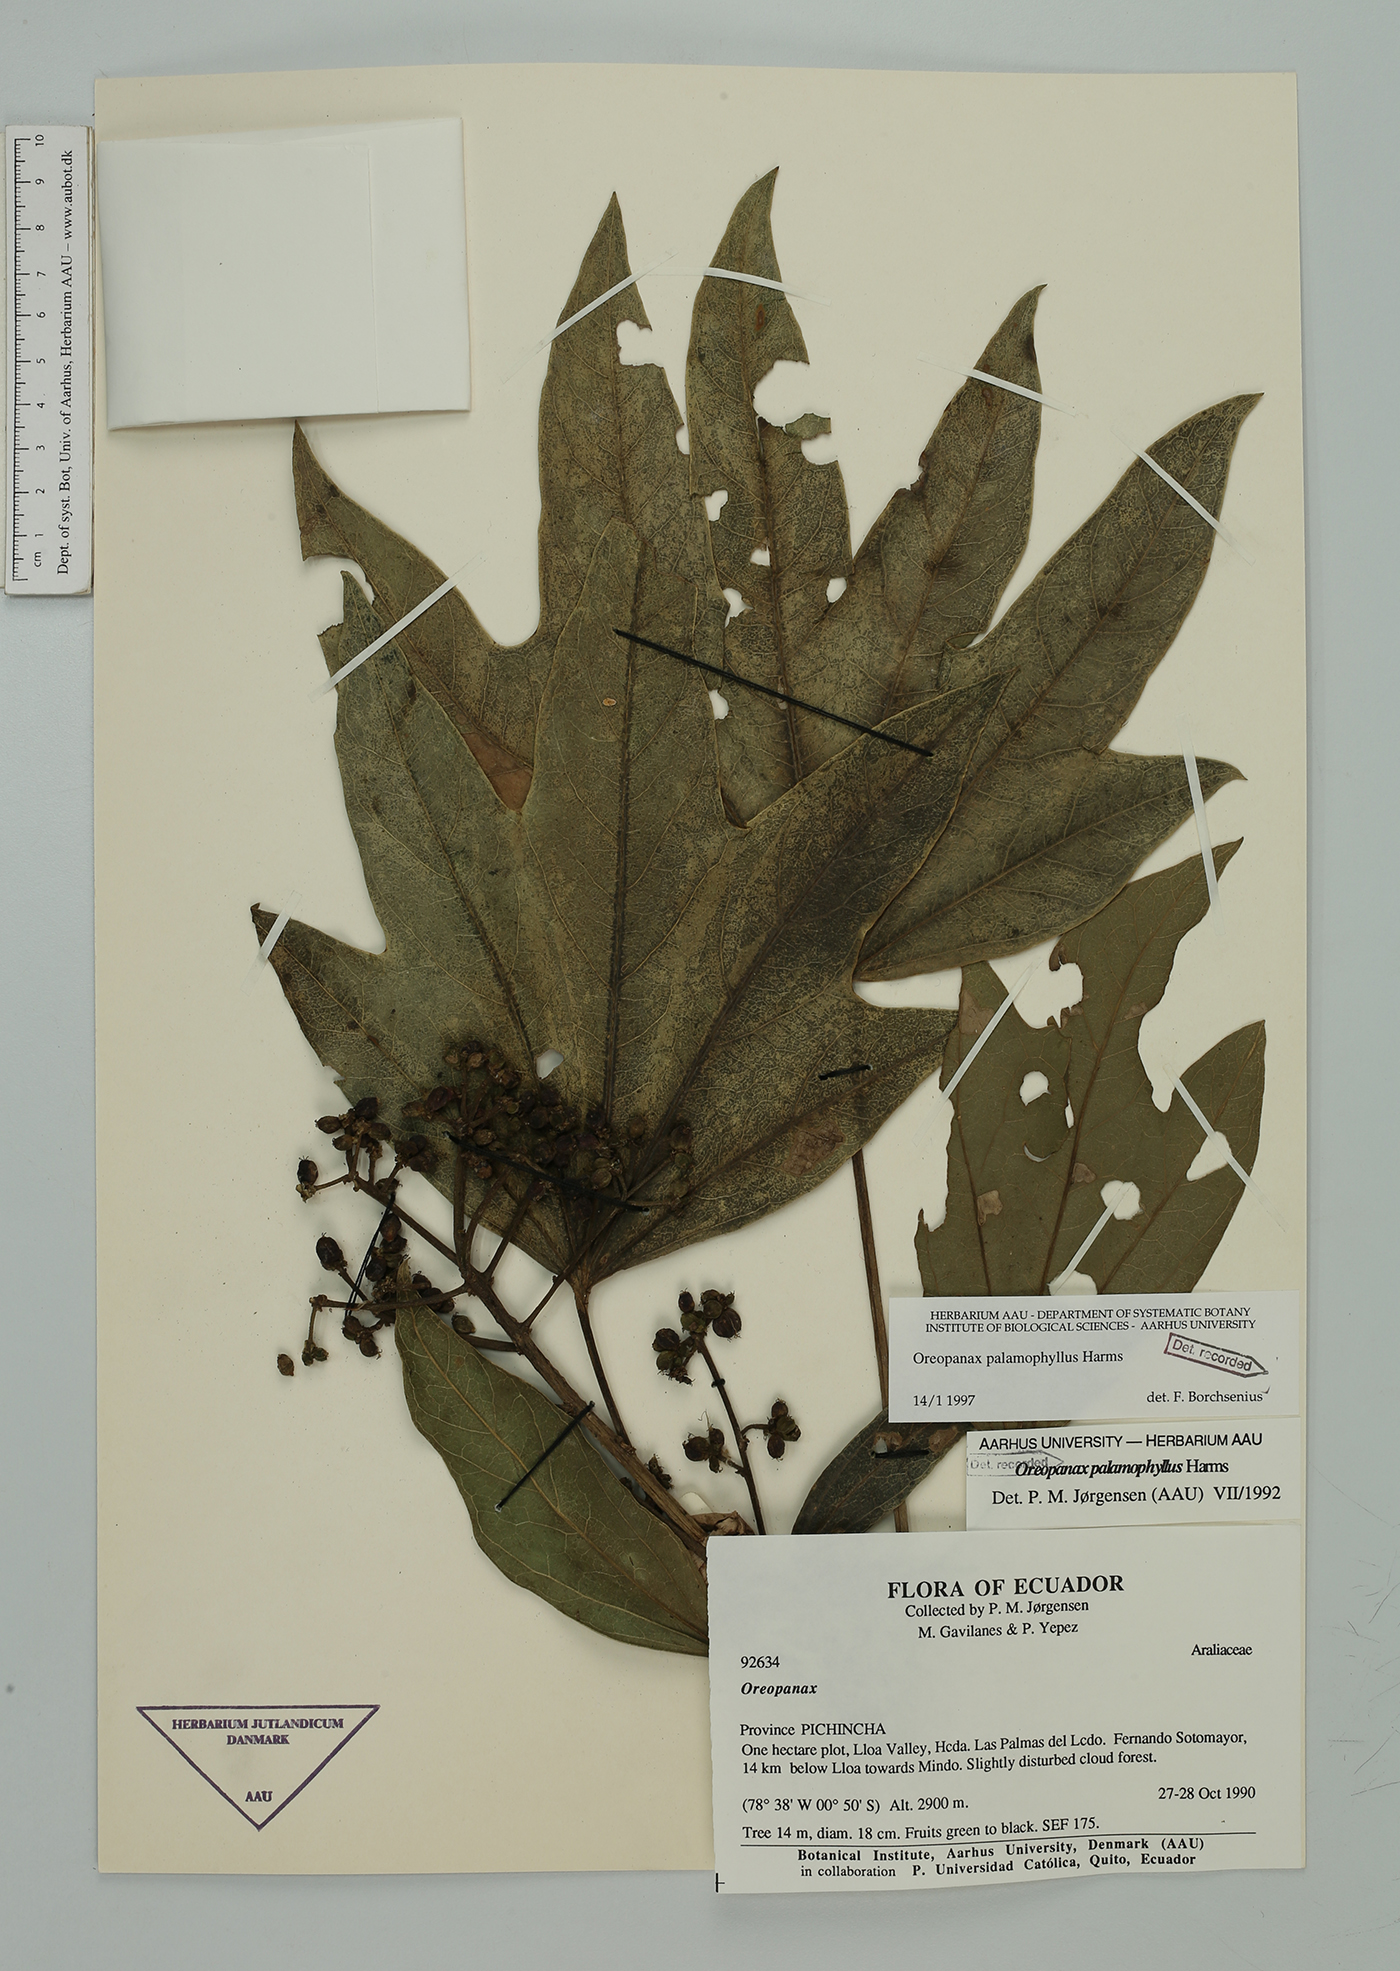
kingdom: Plantae
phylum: Tracheophyta
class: Magnoliopsida
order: Apiales
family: Araliaceae
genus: Oreopanax
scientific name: Oreopanax palamophyllus
